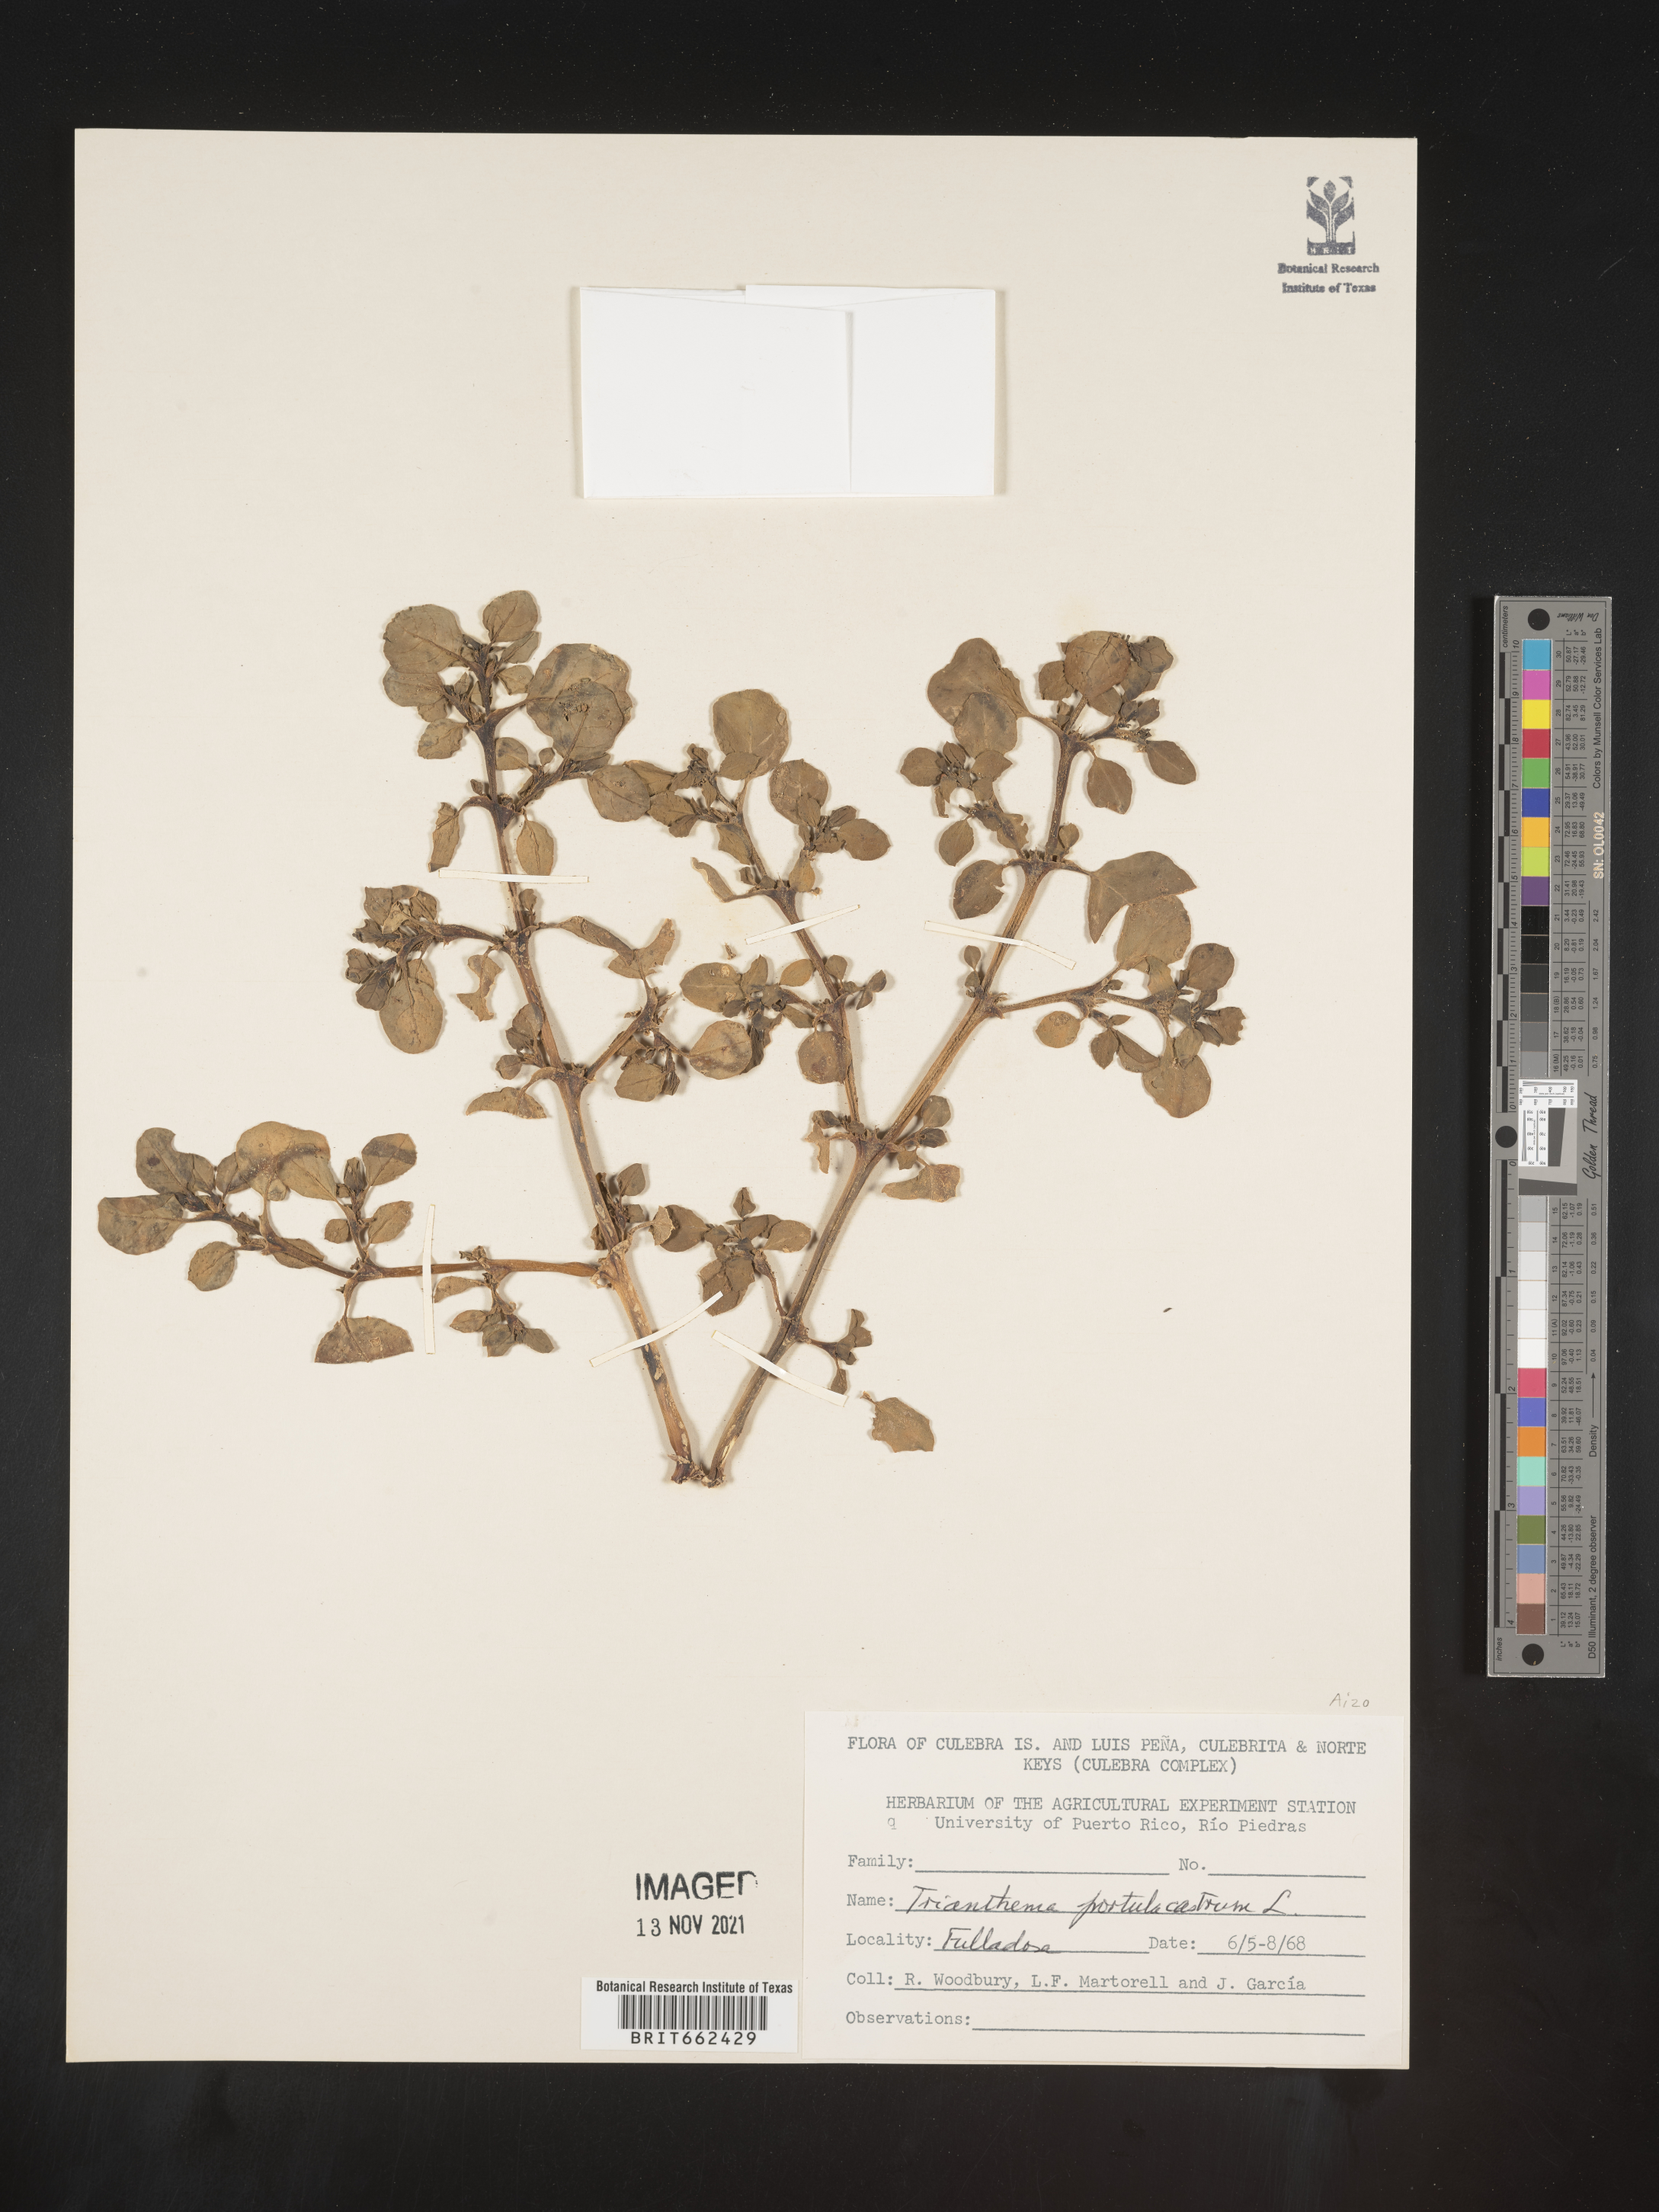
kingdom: Plantae
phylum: Tracheophyta
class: Magnoliopsida
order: Caryophyllales
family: Aizoaceae
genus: Trianthema
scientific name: Trianthema
